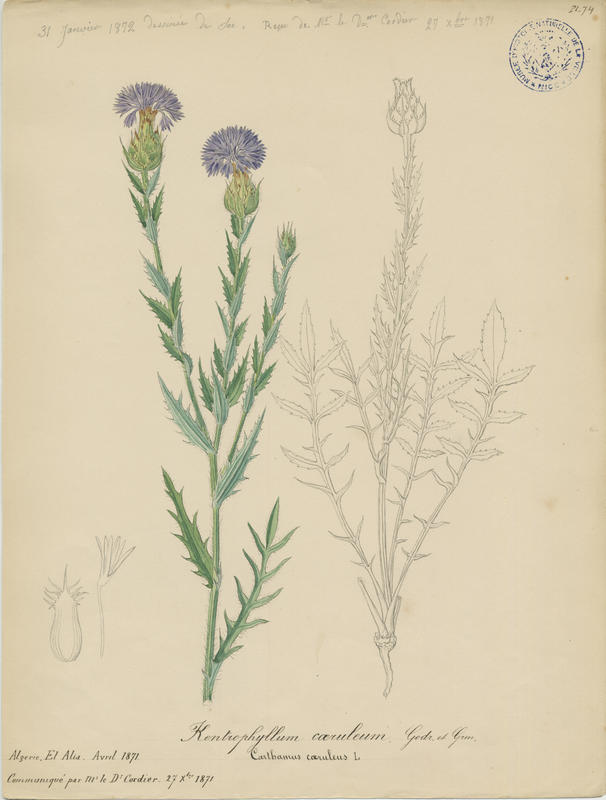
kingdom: Plantae
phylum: Tracheophyta
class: Magnoliopsida
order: Asterales
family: Asteraceae
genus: Carduncellus
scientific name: Carduncellus caeruleus
